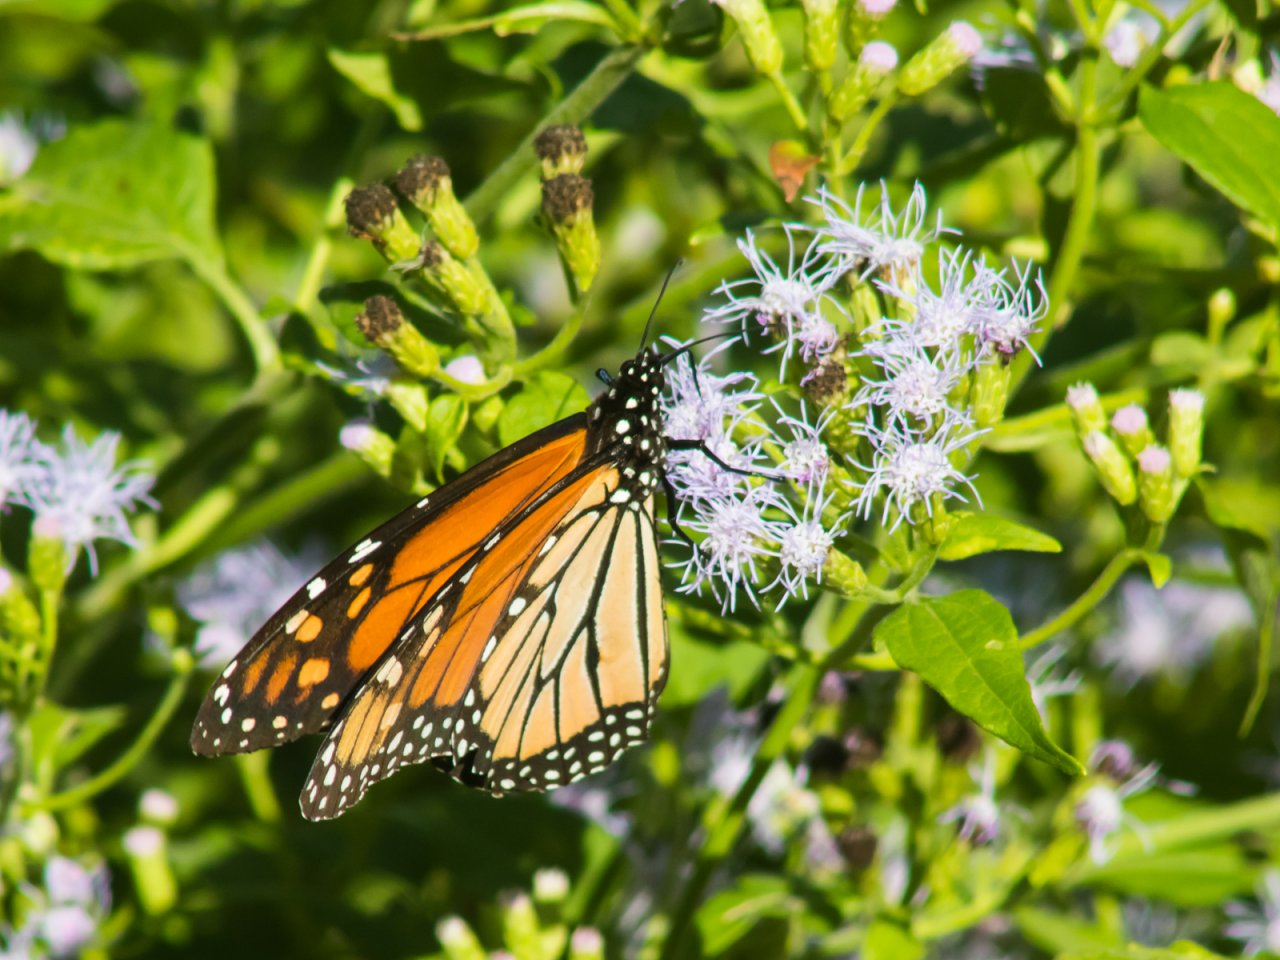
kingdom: Animalia
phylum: Arthropoda
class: Insecta
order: Lepidoptera
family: Nymphalidae
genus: Danaus
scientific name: Danaus plexippus
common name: Monarch
